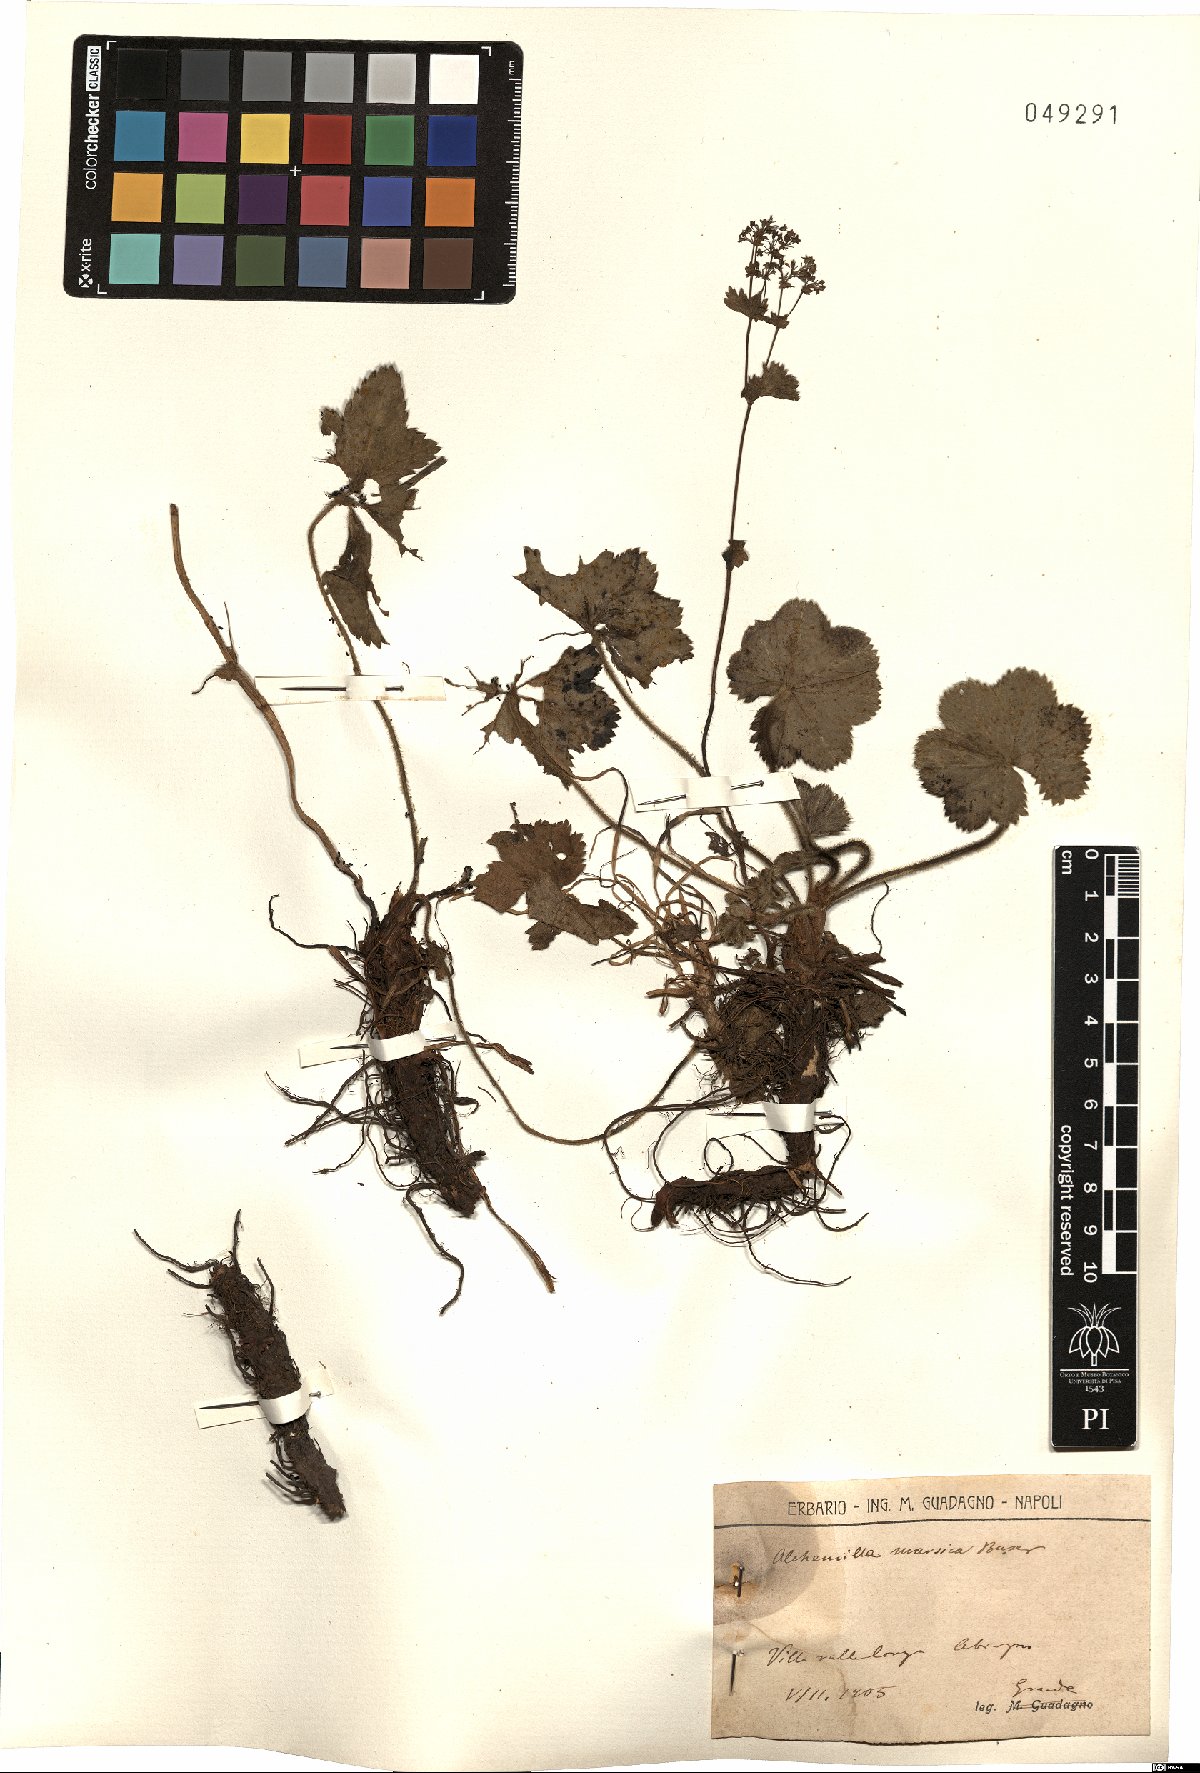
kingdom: Plantae
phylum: Tracheophyta
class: Magnoliopsida
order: Rosales
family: Rosaceae
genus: Alchemilla
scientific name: Alchemilla marsica
